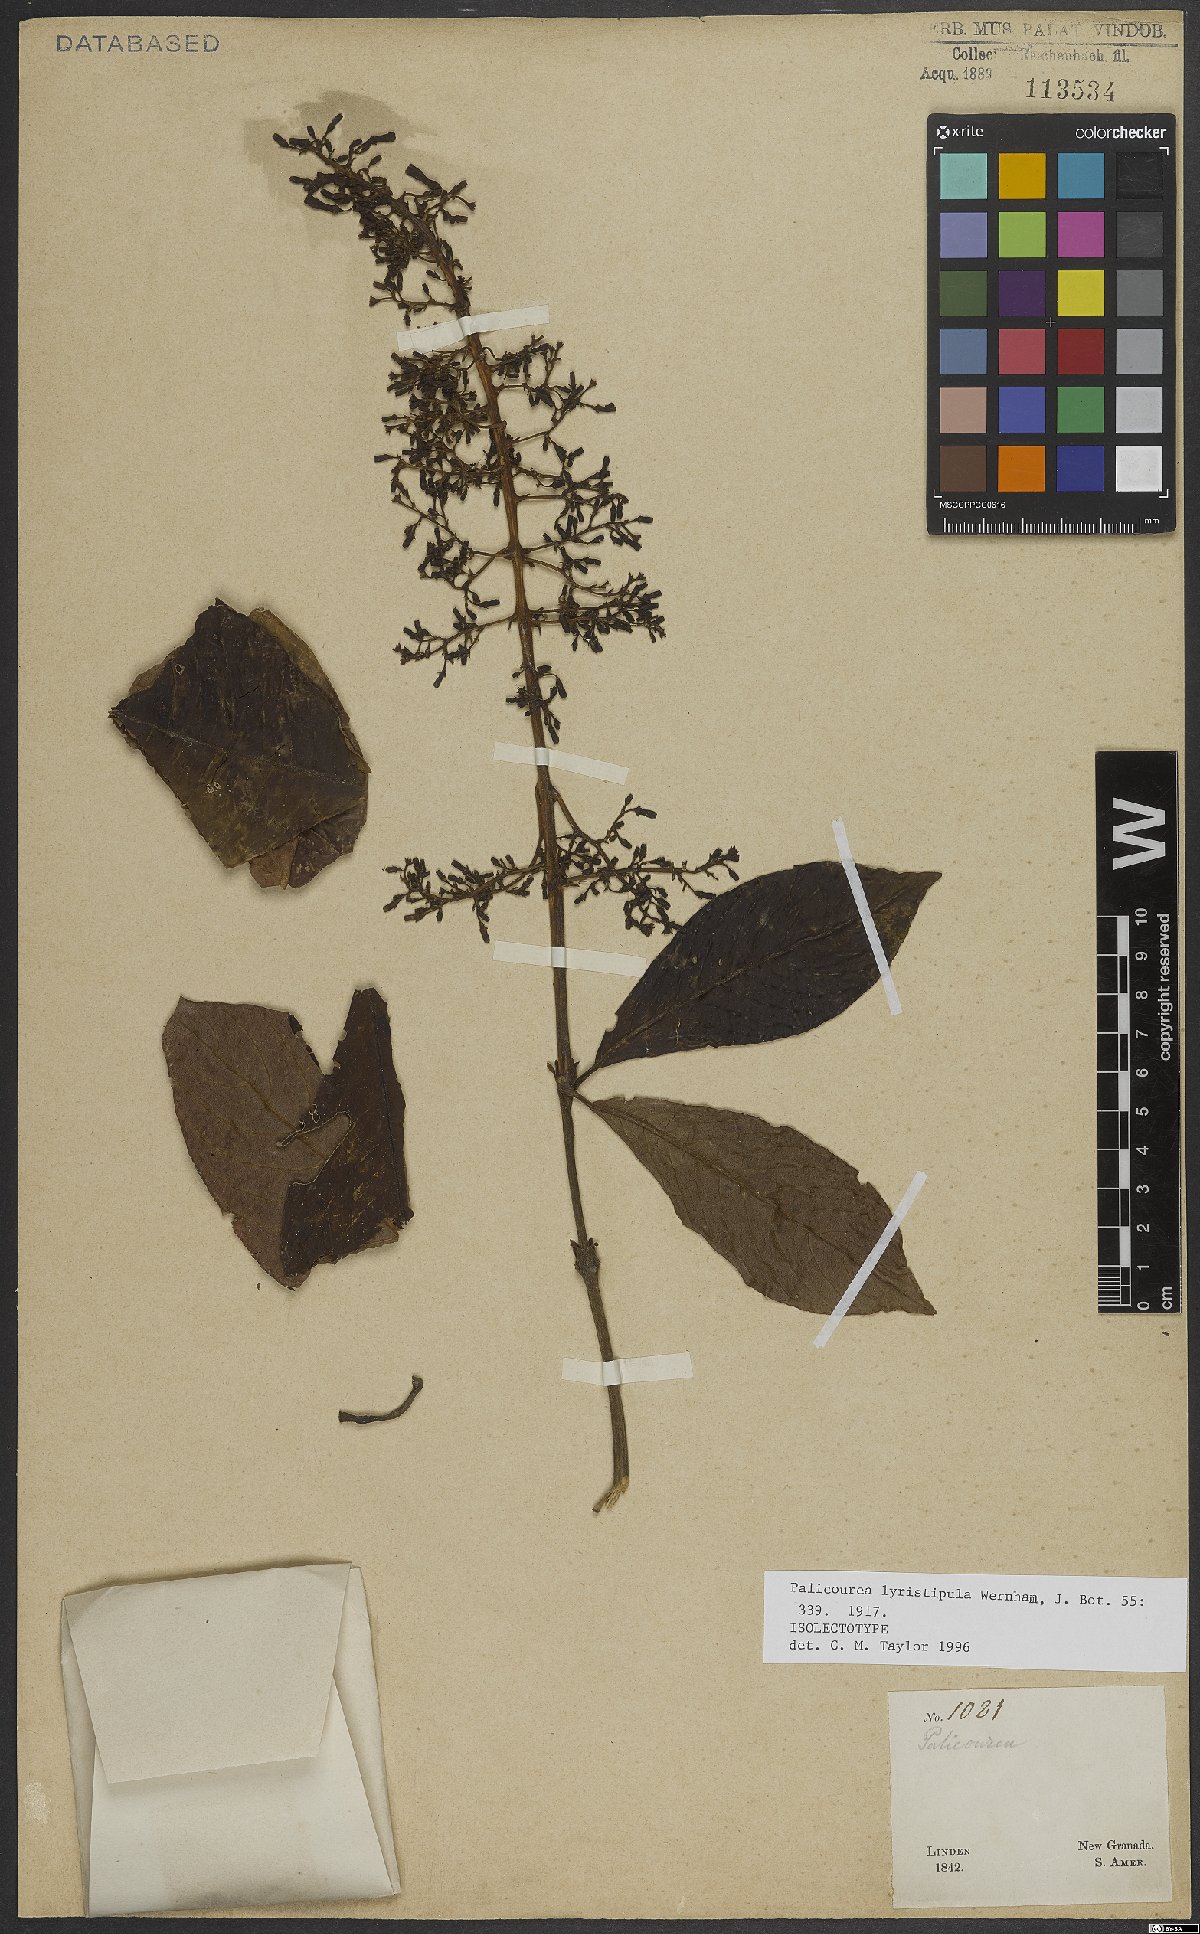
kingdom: Plantae
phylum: Tracheophyta
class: Magnoliopsida
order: Gentianales
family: Rubiaceae
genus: Palicourea
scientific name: Palicourea lyristipula
